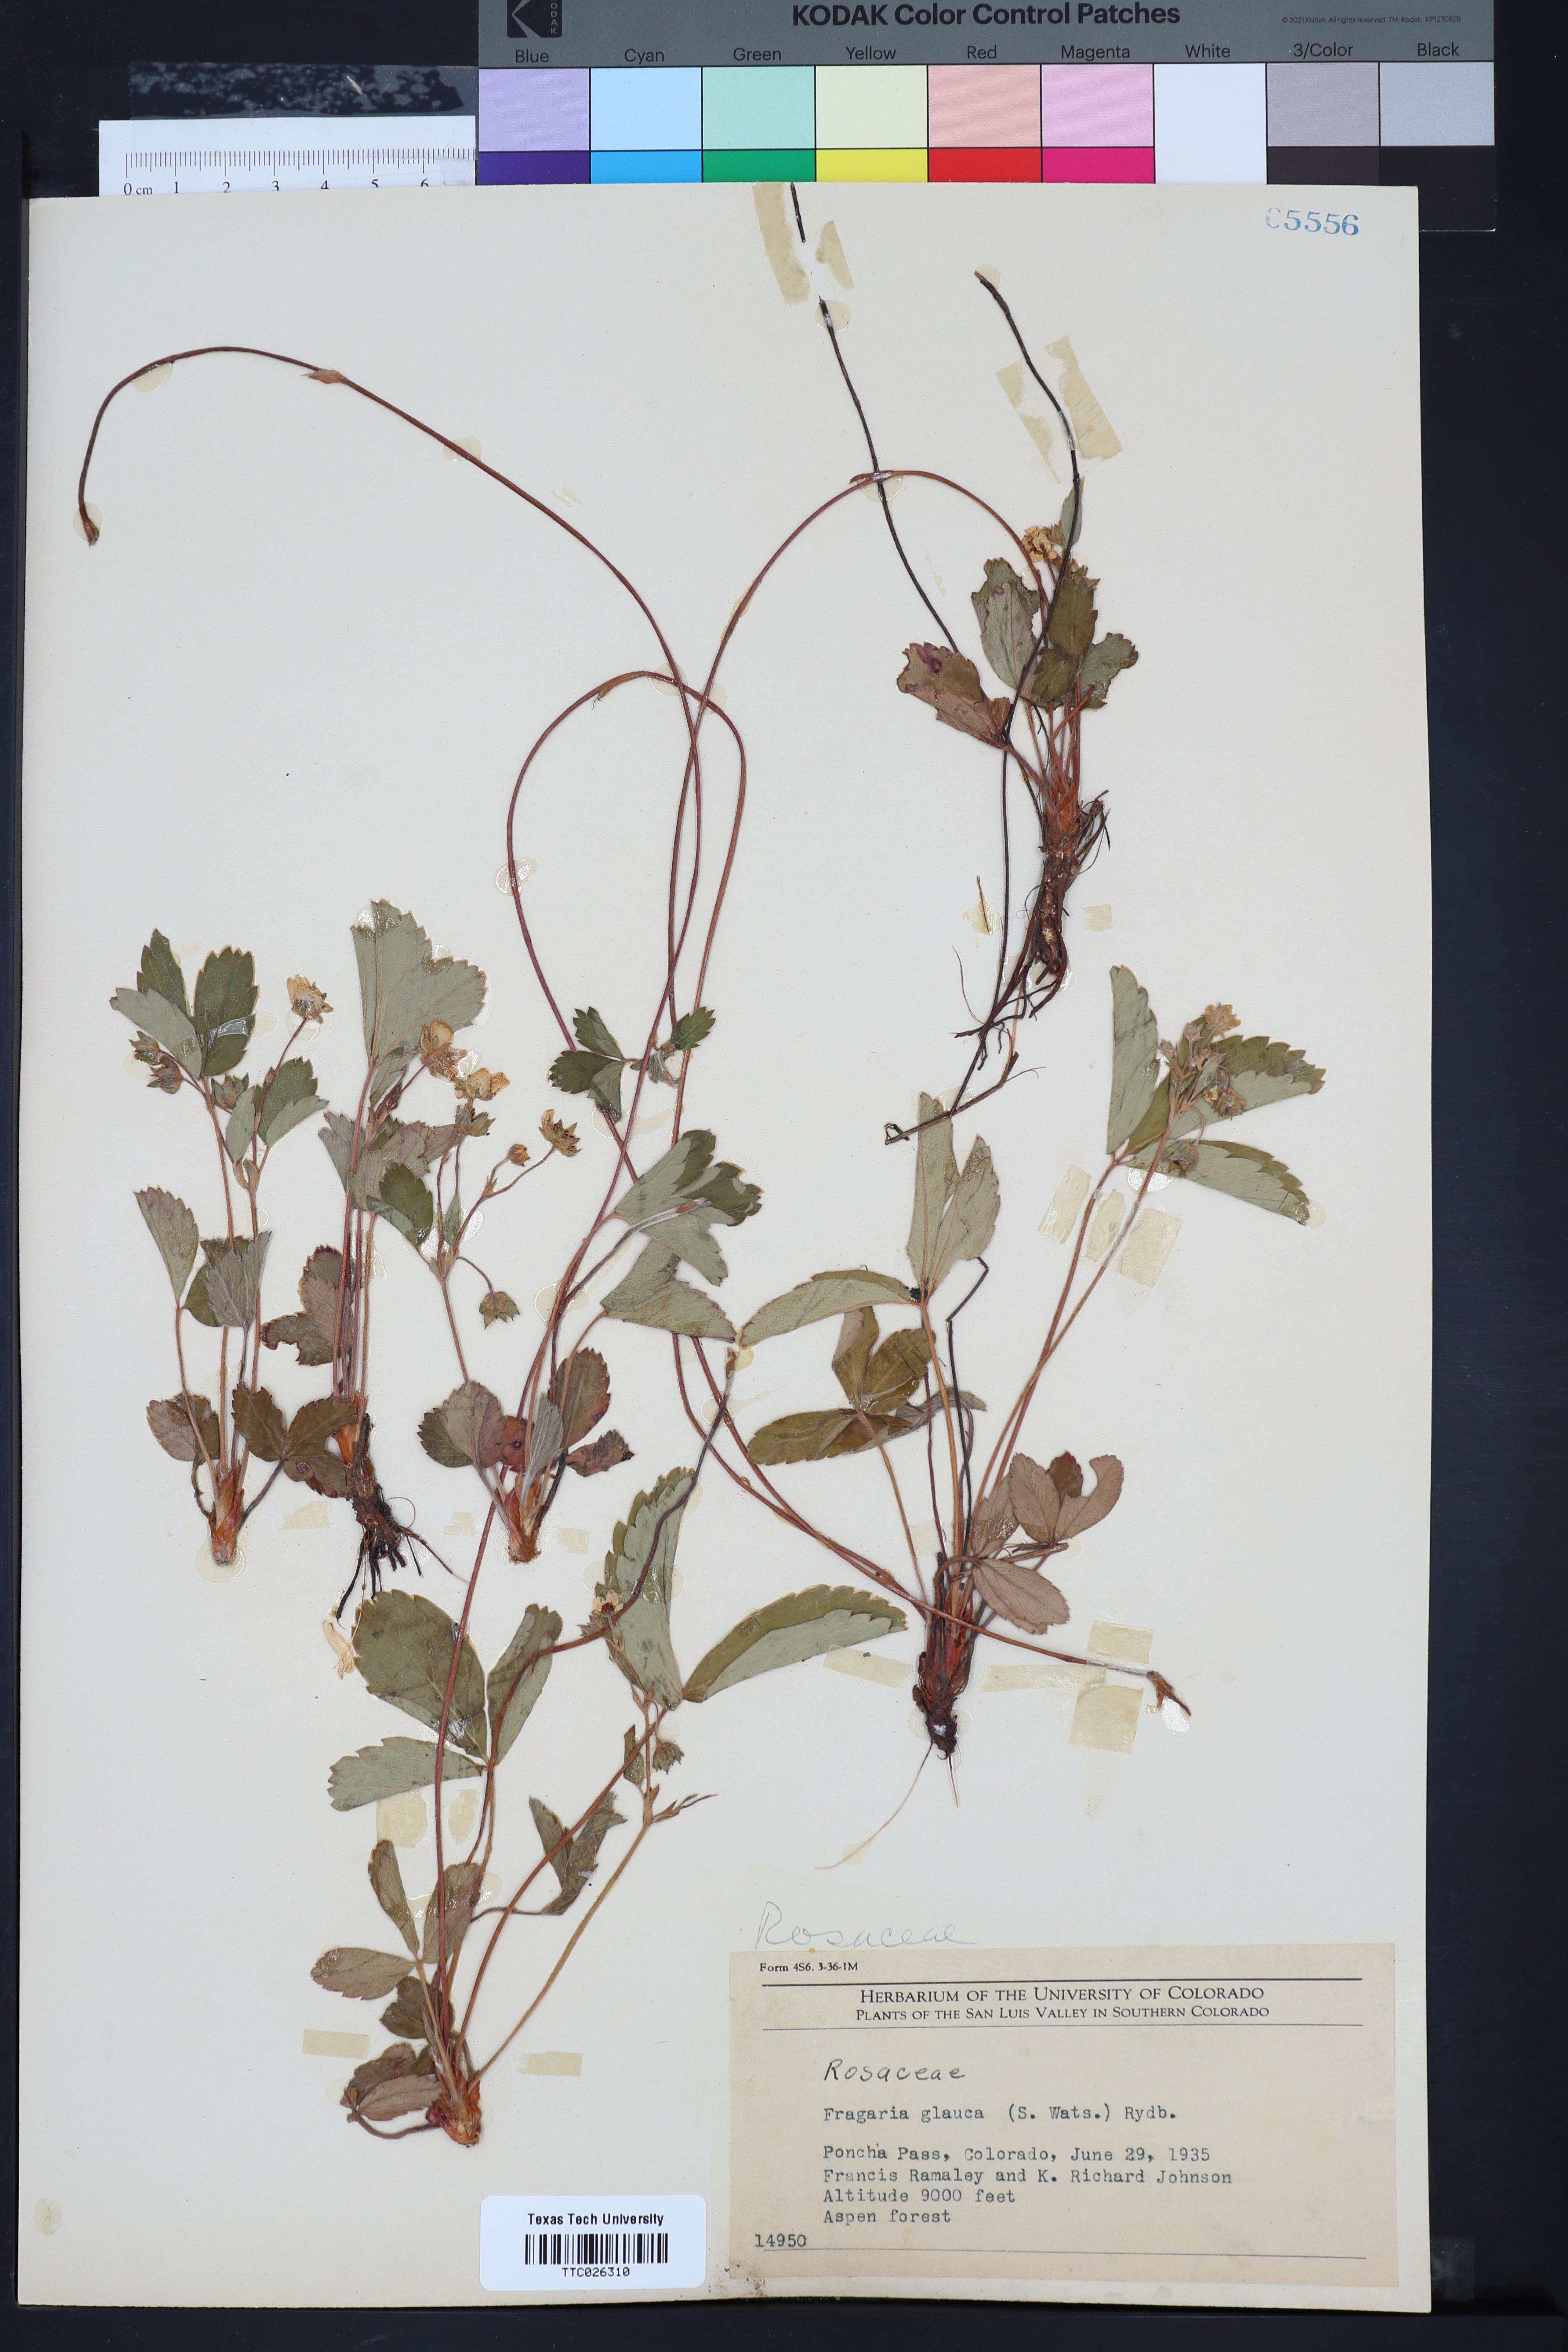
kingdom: Plantae
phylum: Tracheophyta
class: Magnoliopsida
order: Rosales
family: Rosaceae
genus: Fragaria
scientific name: Fragaria virginiana
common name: Thickleaved wild strawberry
